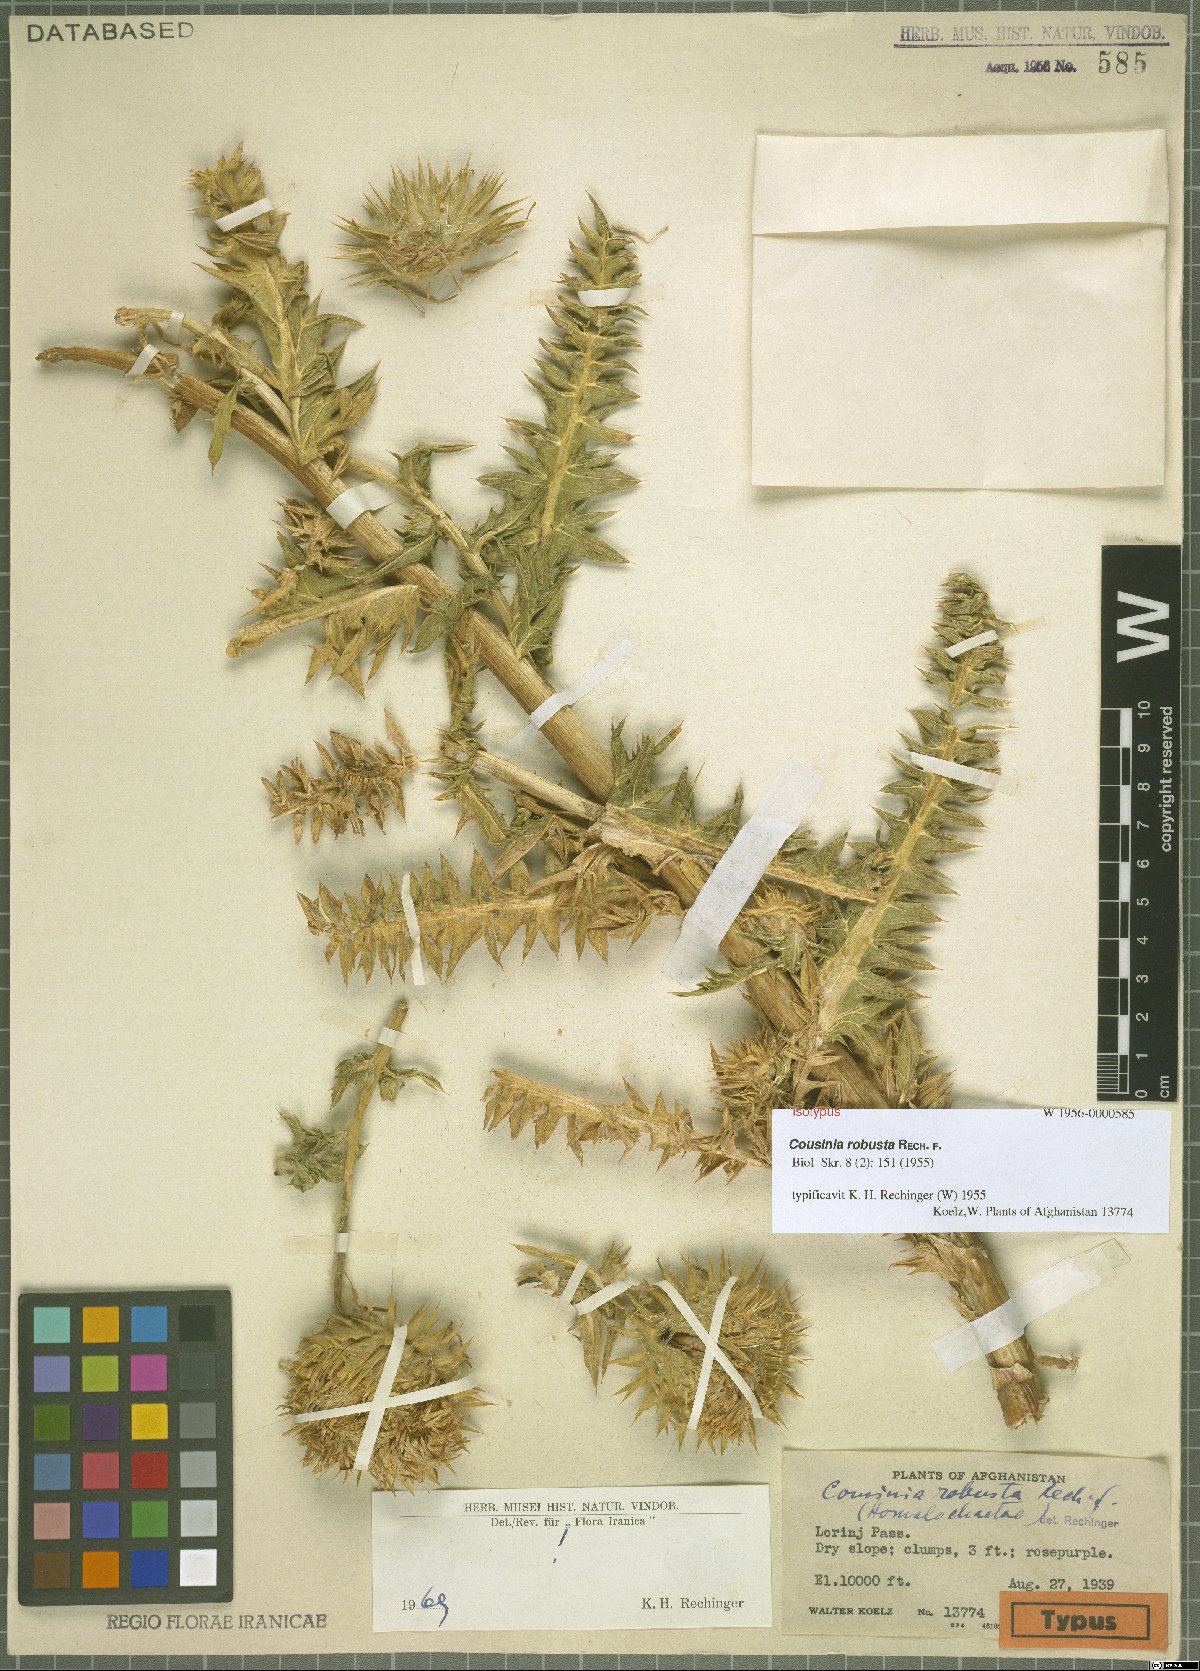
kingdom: Plantae
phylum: Tracheophyta
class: Magnoliopsida
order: Asterales
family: Asteraceae
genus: Cousinia
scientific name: Cousinia robusta
